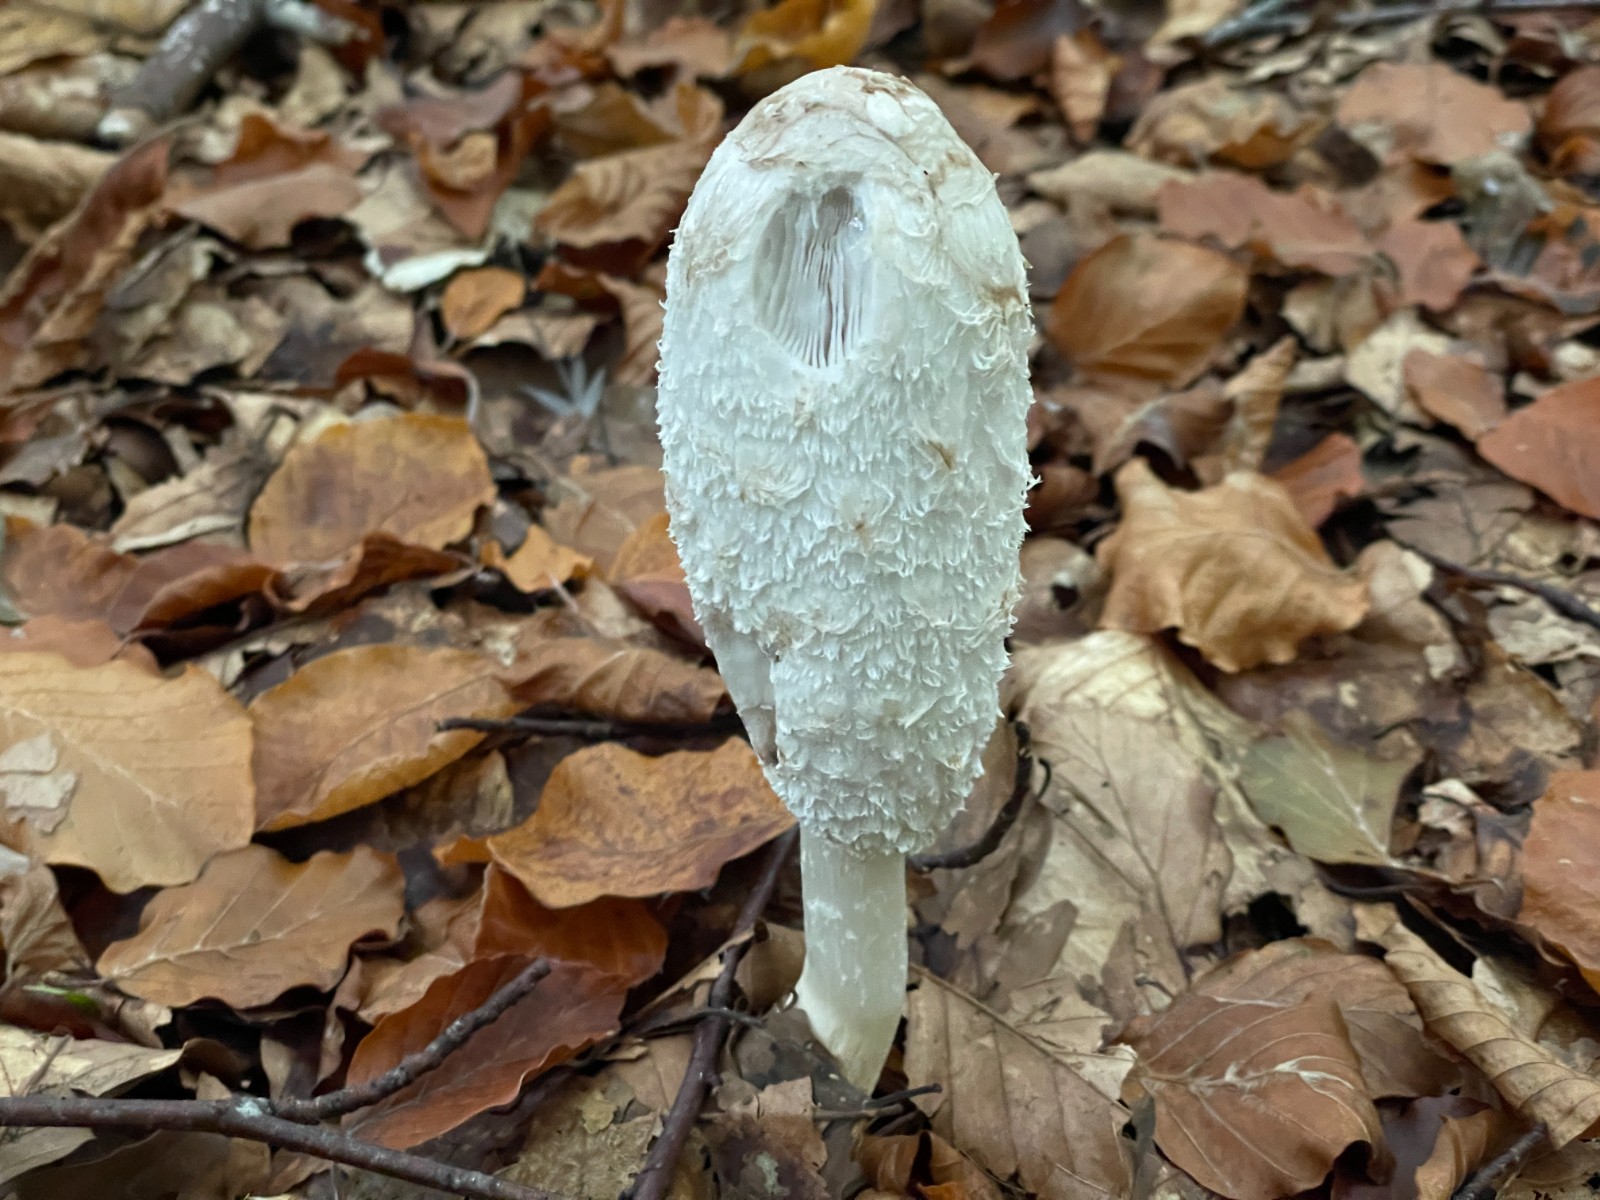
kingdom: Fungi
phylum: Basidiomycota
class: Agaricomycetes
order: Agaricales
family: Agaricaceae
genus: Coprinus
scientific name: Coprinus comatus
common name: stor parykhat
